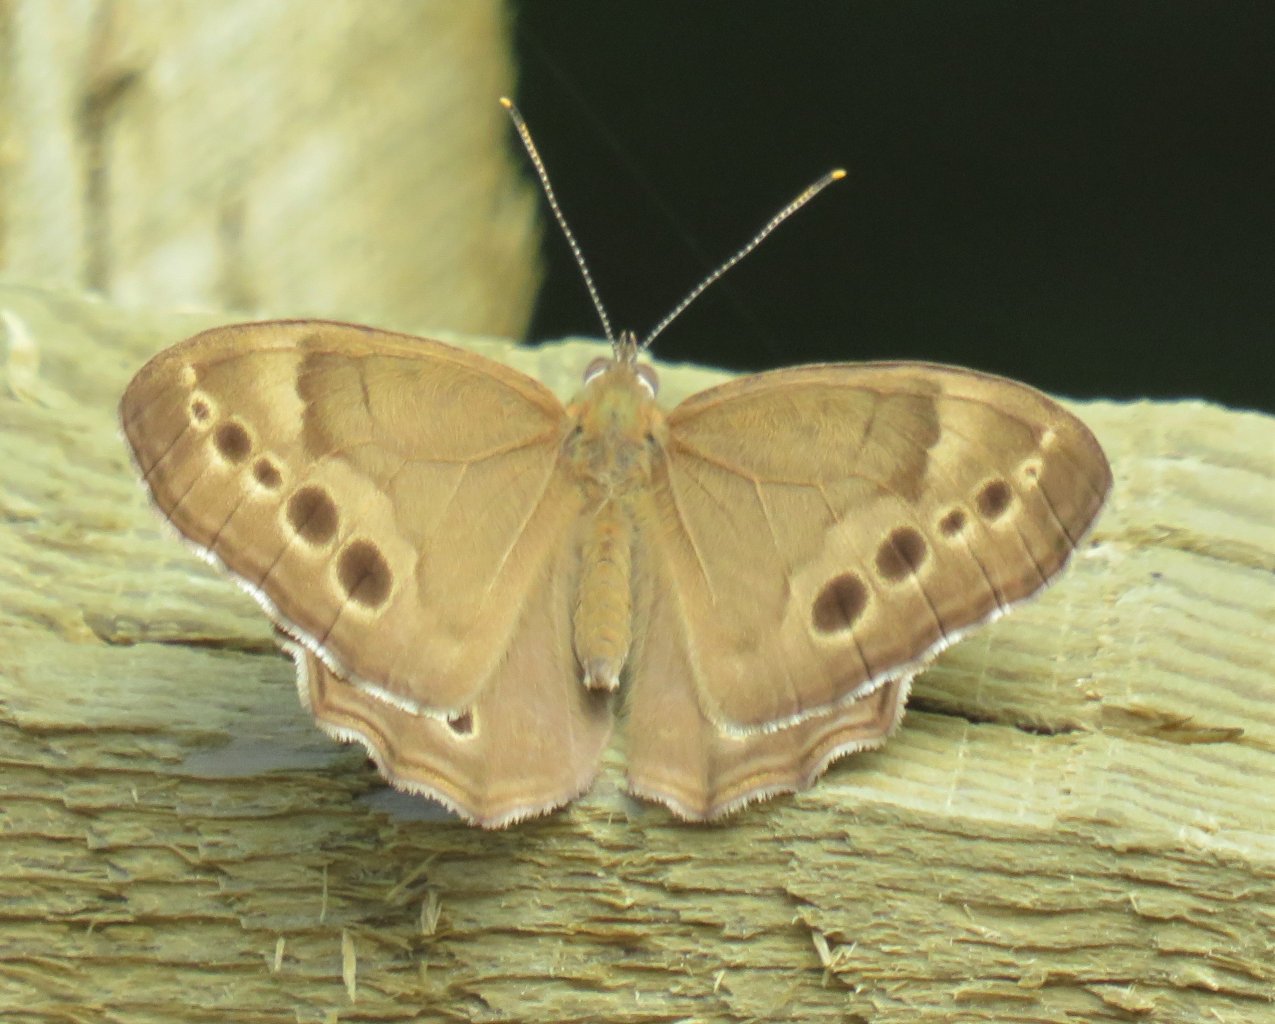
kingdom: Animalia
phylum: Arthropoda
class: Insecta
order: Lepidoptera
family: Nymphalidae
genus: Lethe
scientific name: Lethe anthedon
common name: Northern Pearly-Eye
